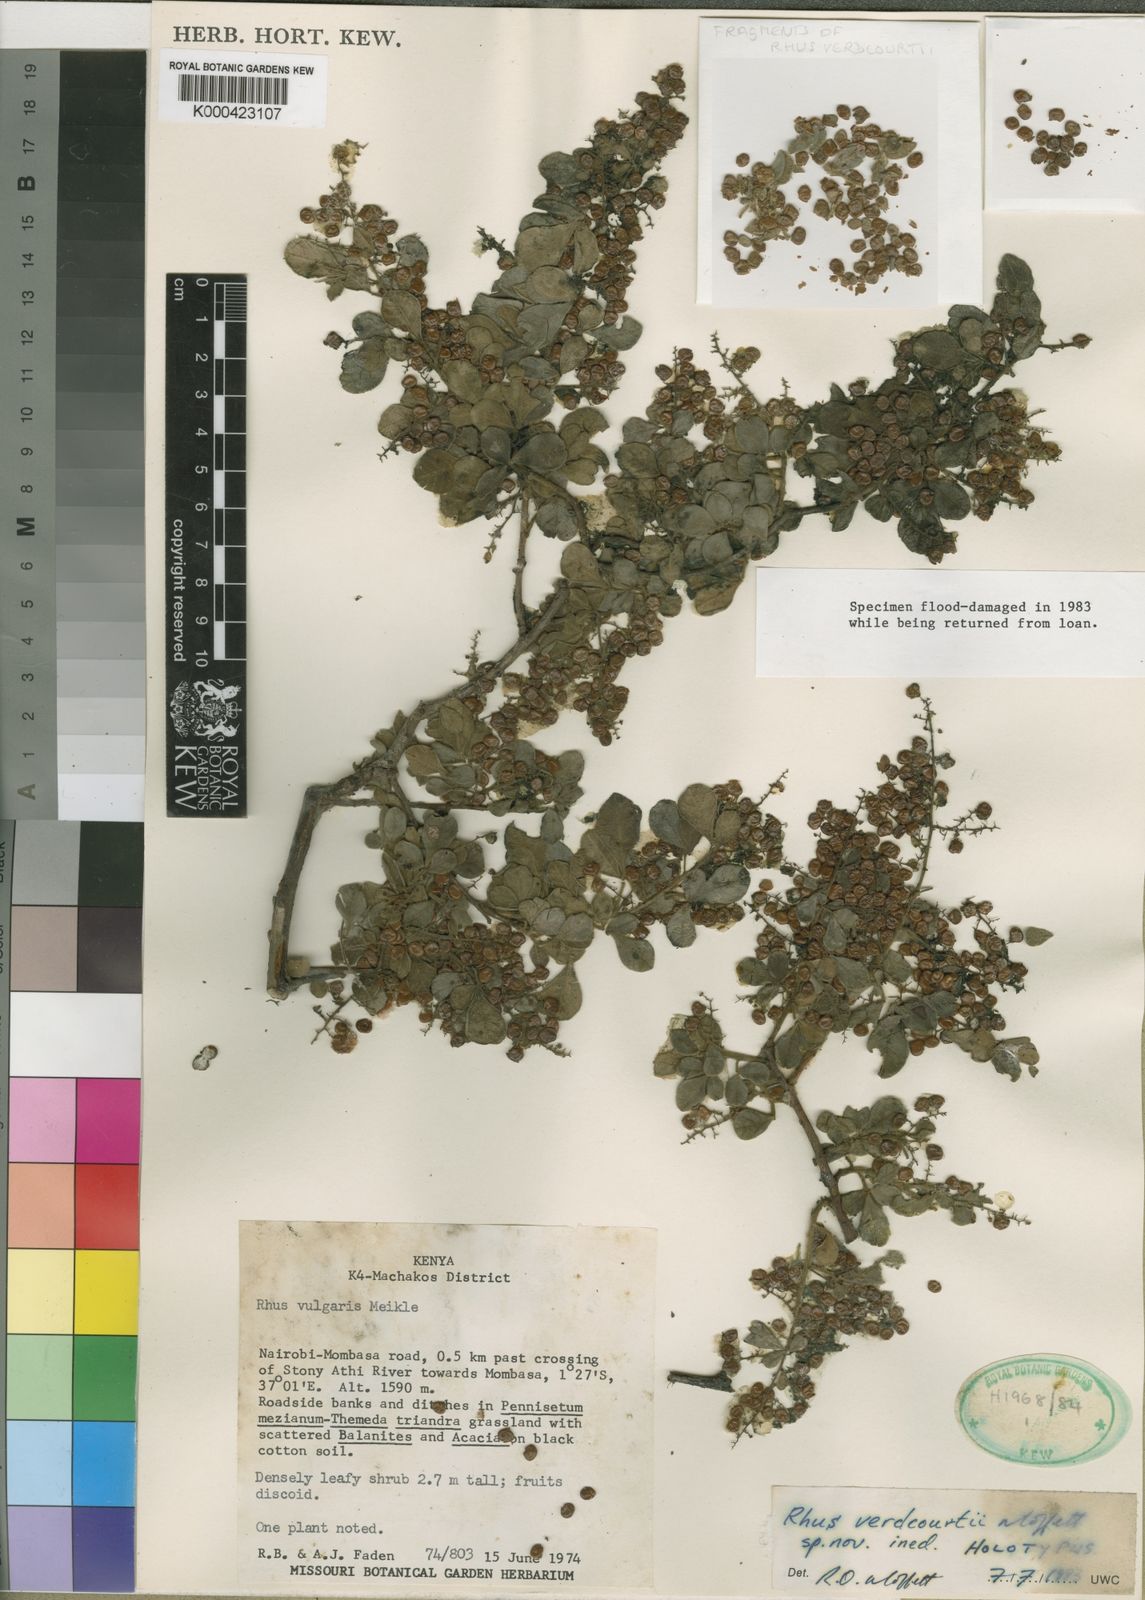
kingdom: Plantae
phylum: Tracheophyta
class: Magnoliopsida
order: Sapindales
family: Anacardiaceae
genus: Rhus
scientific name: Rhus
